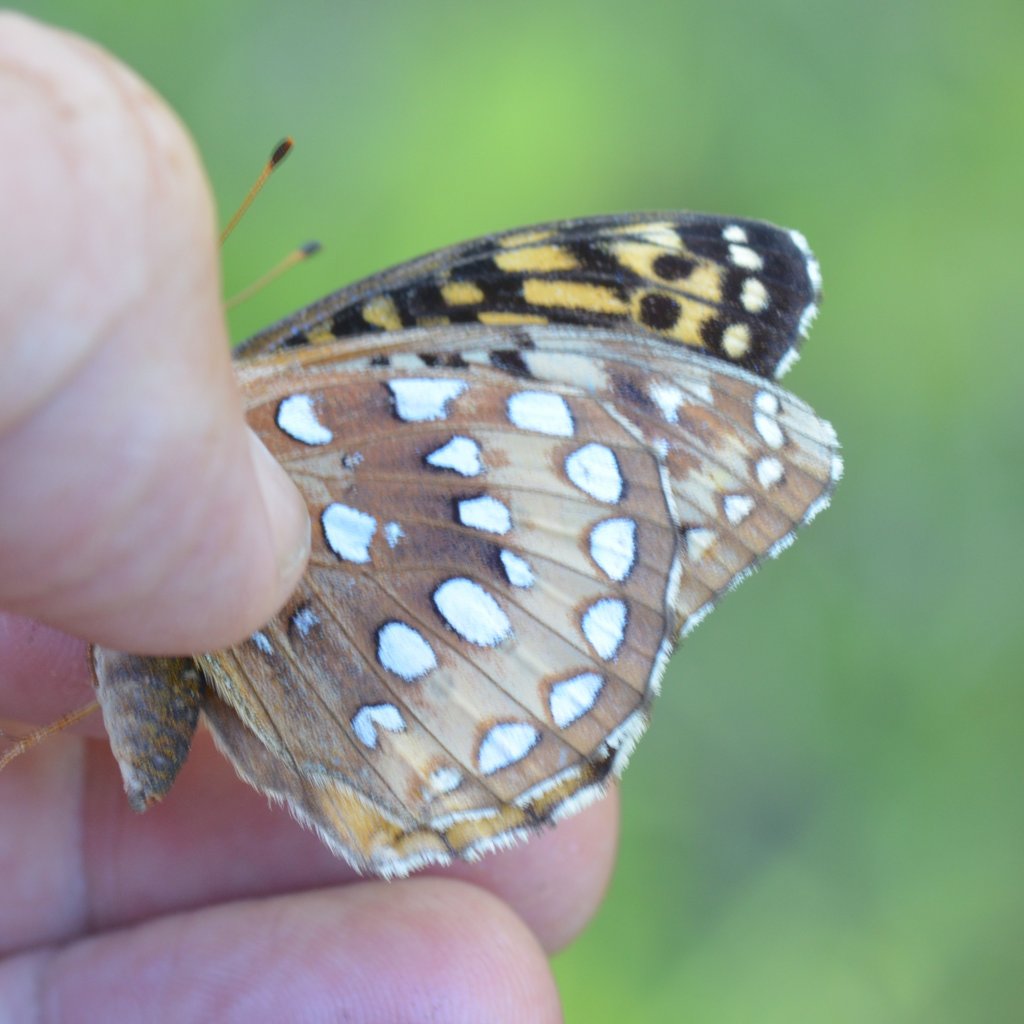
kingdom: Animalia
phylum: Arthropoda
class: Insecta
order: Lepidoptera
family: Nymphalidae
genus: Speyeria
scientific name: Speyeria cybele
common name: Great Spangled Fritillary
